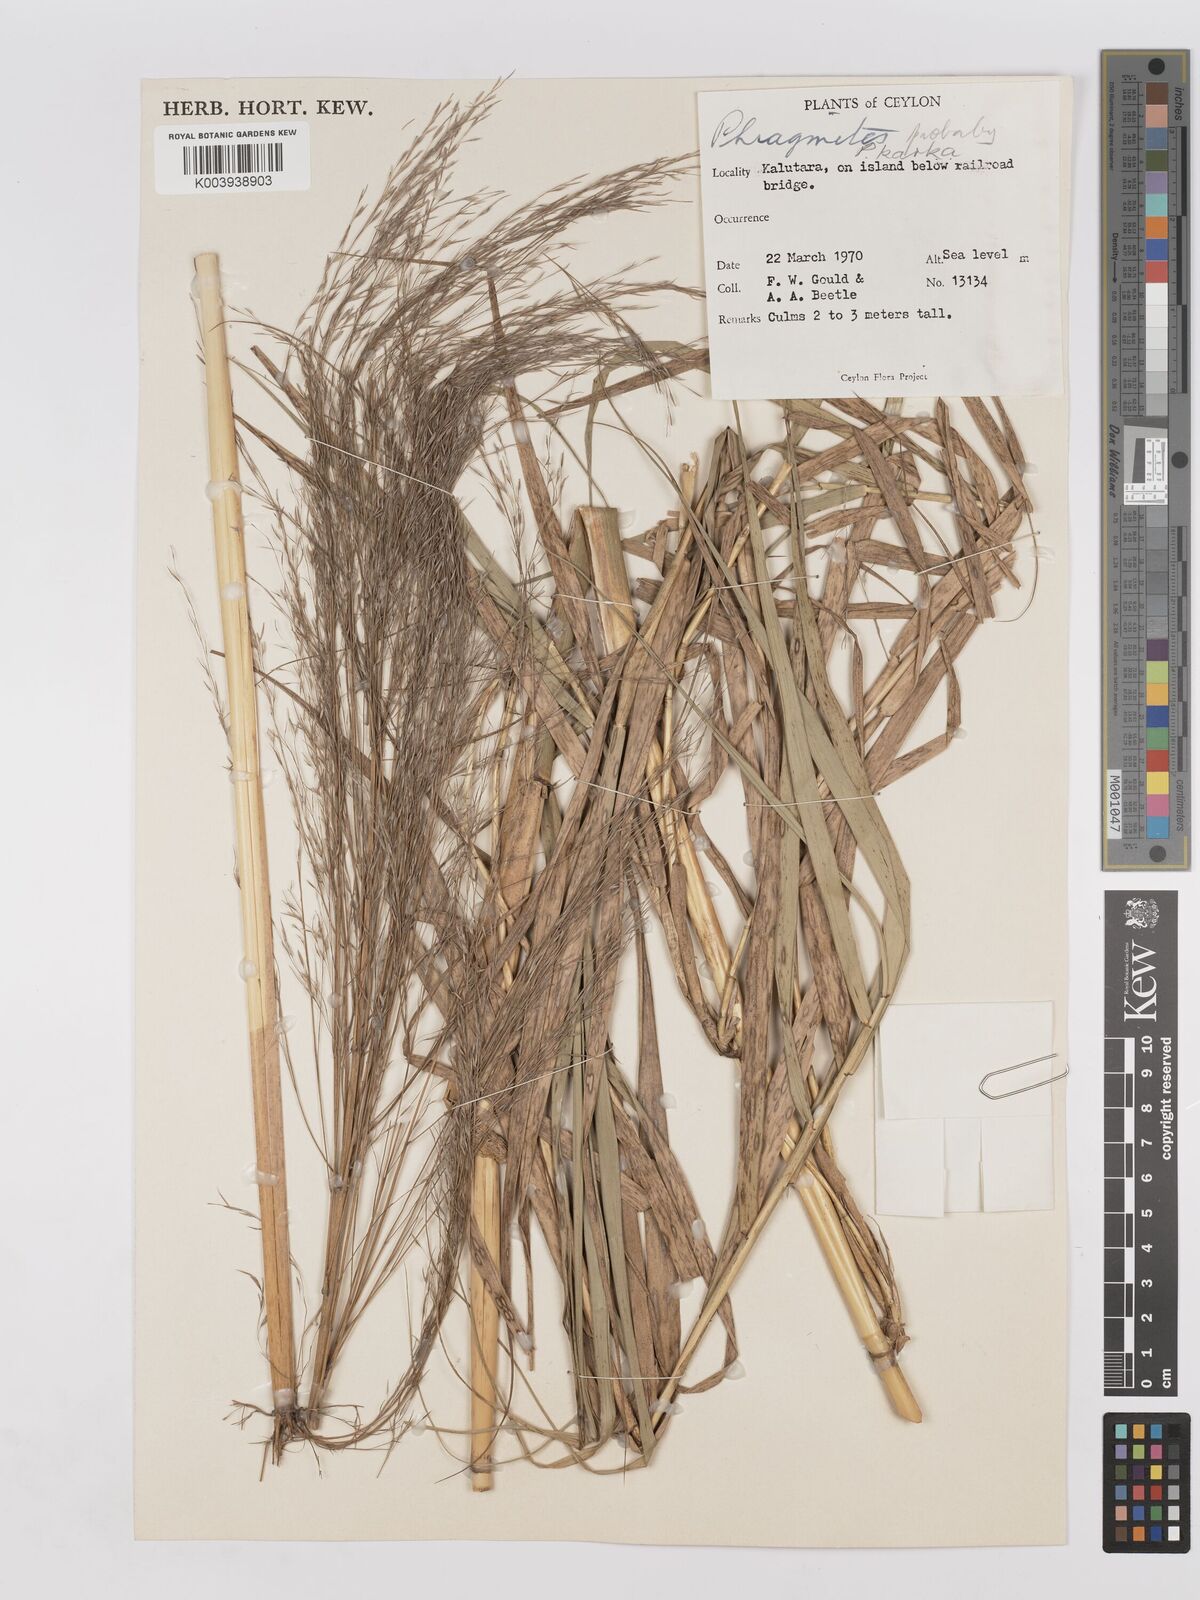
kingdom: Plantae
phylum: Tracheophyta
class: Liliopsida
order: Poales
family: Poaceae
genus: Phragmites
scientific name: Phragmites karka
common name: Tropical reed
